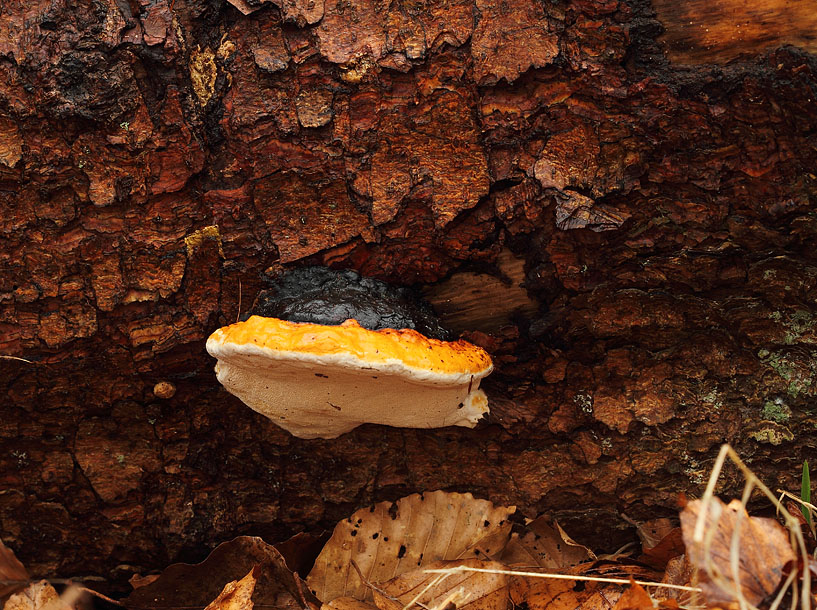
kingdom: Fungi
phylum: Basidiomycota
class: Agaricomycetes
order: Polyporales
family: Fomitopsidaceae
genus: Fomitopsis
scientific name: Fomitopsis pinicola
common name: randbæltet hovporesvamp
